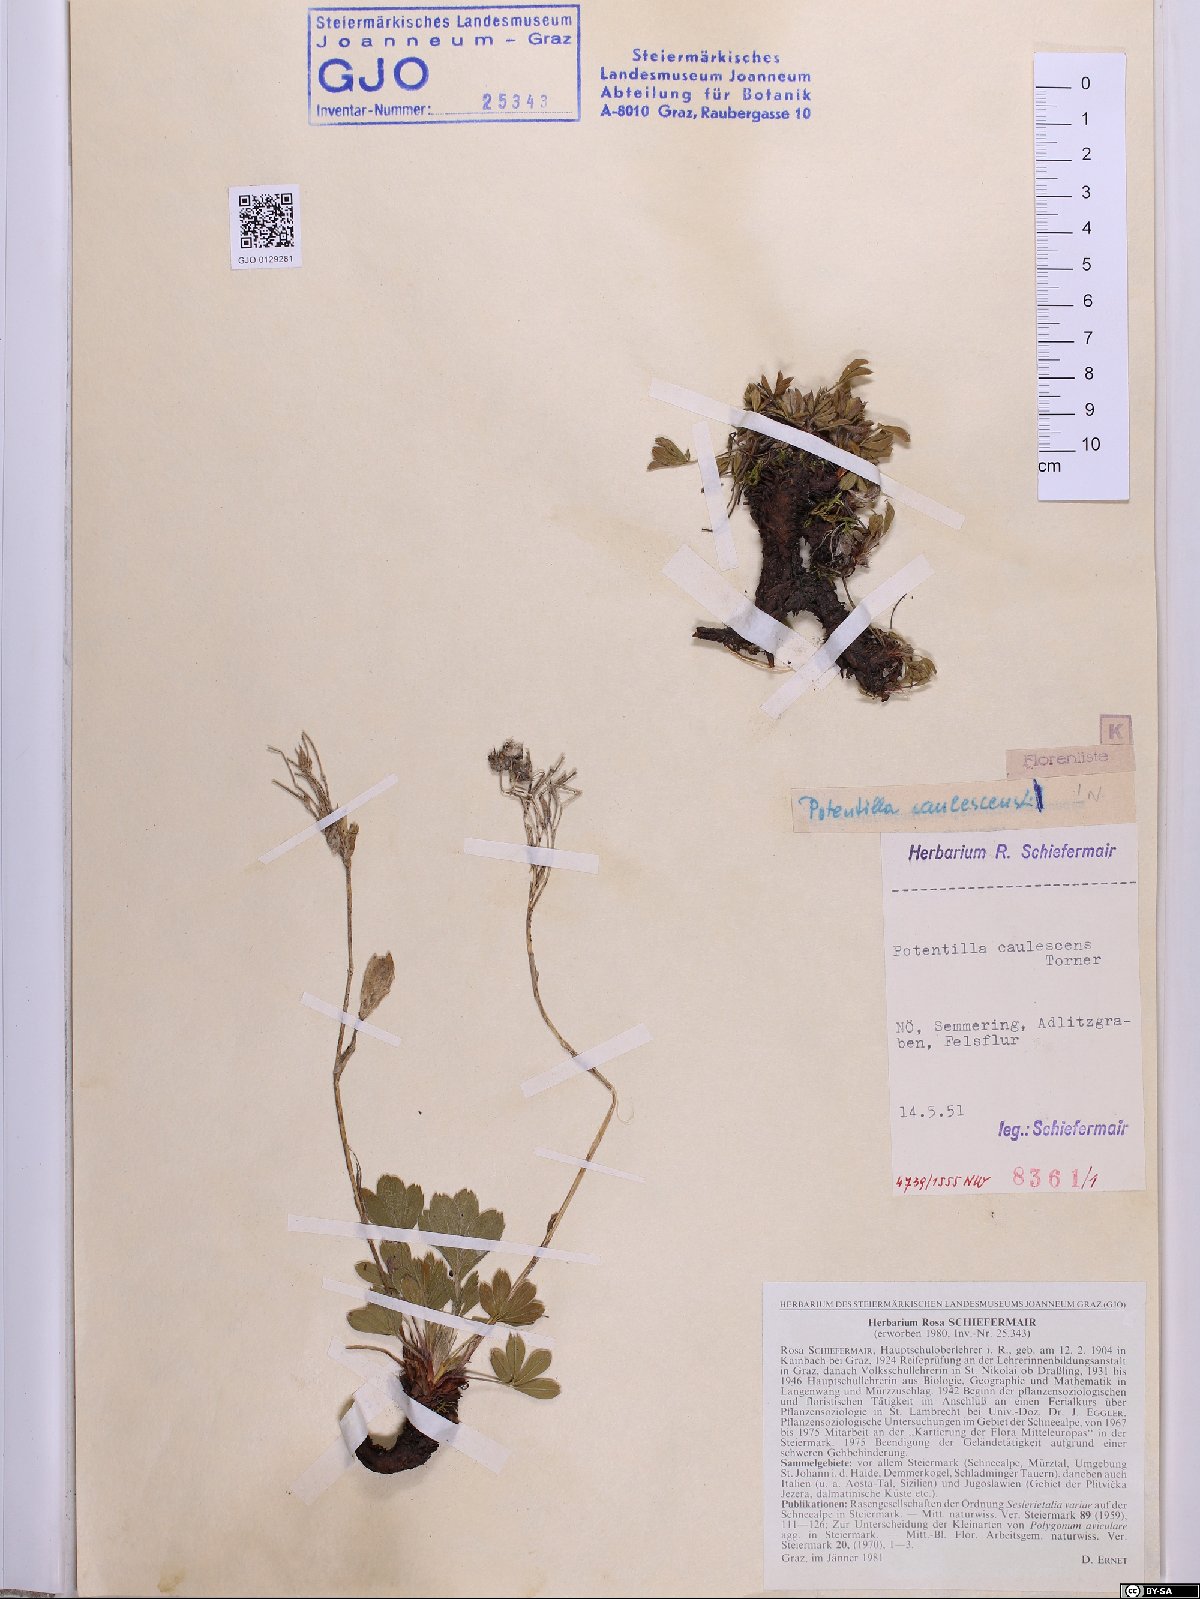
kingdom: Plantae
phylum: Tracheophyta
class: Magnoliopsida
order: Rosales
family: Rosaceae
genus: Potentilla
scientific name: Potentilla caulescens
